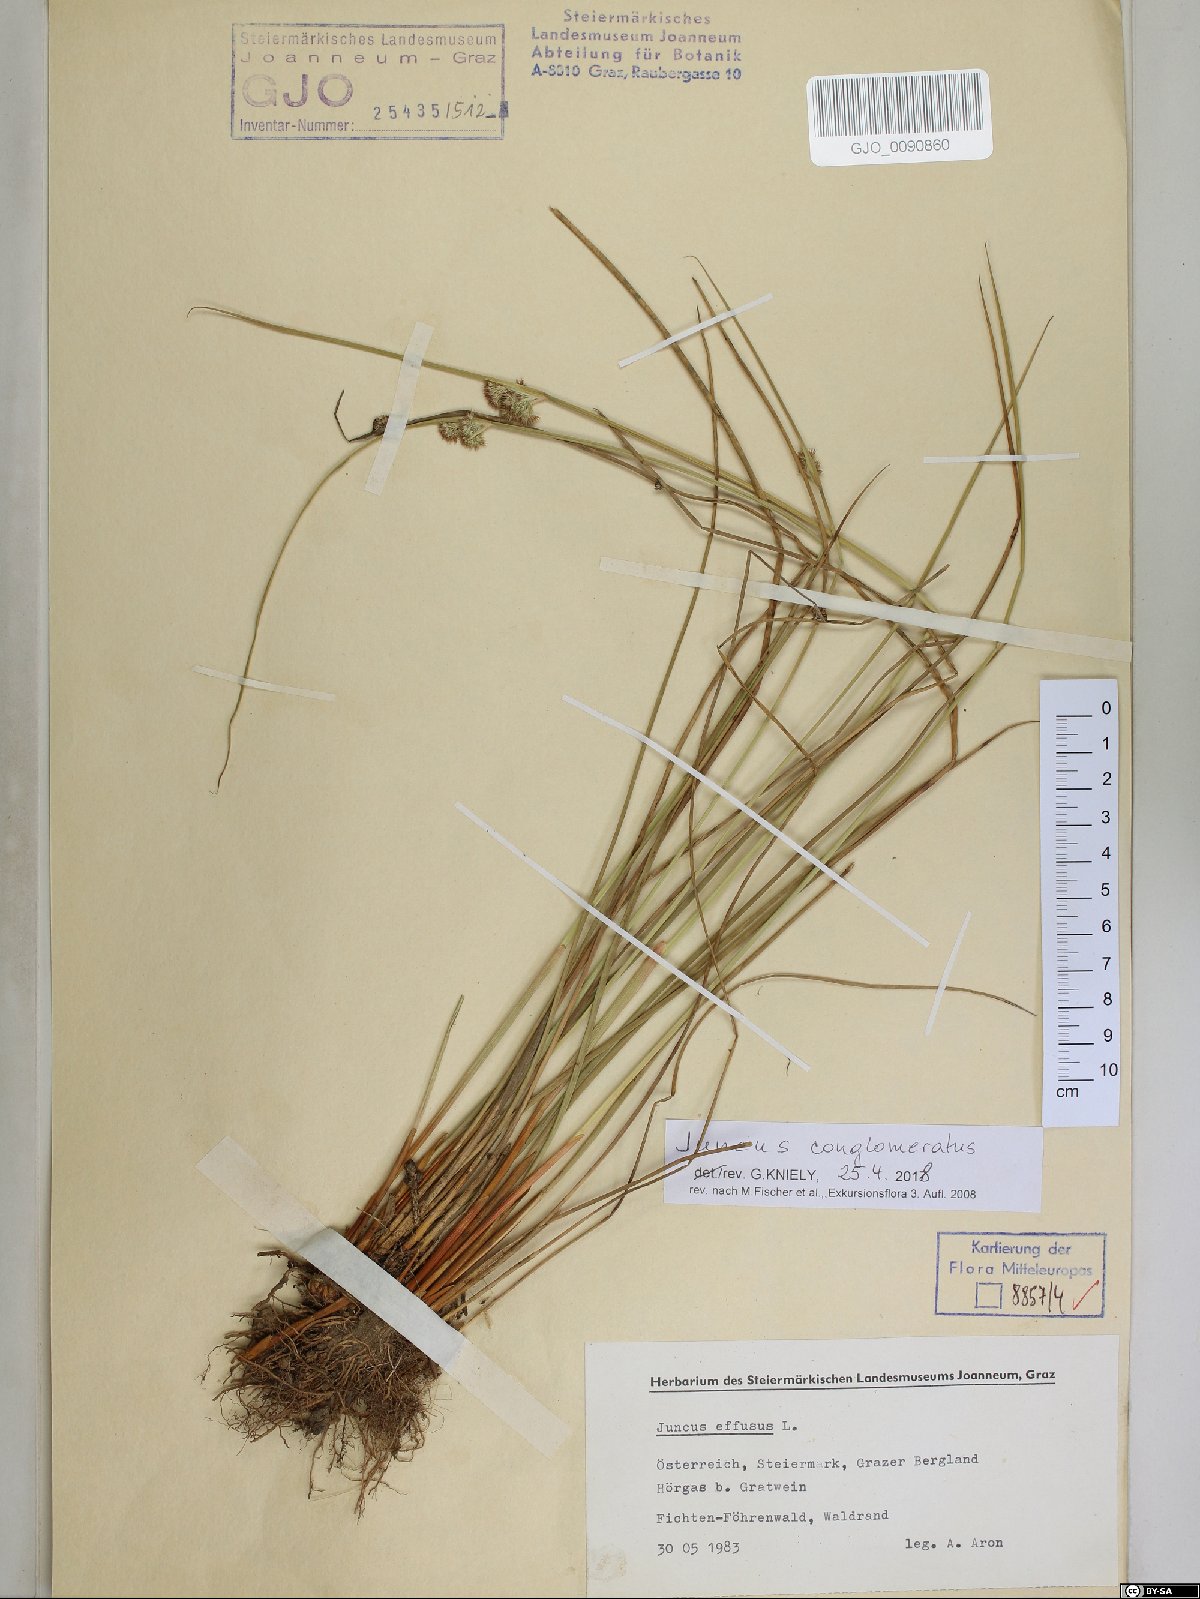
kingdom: Plantae
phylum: Tracheophyta
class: Liliopsida
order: Poales
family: Juncaceae
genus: Juncus
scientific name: Juncus conglomeratus
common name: Compact rush
